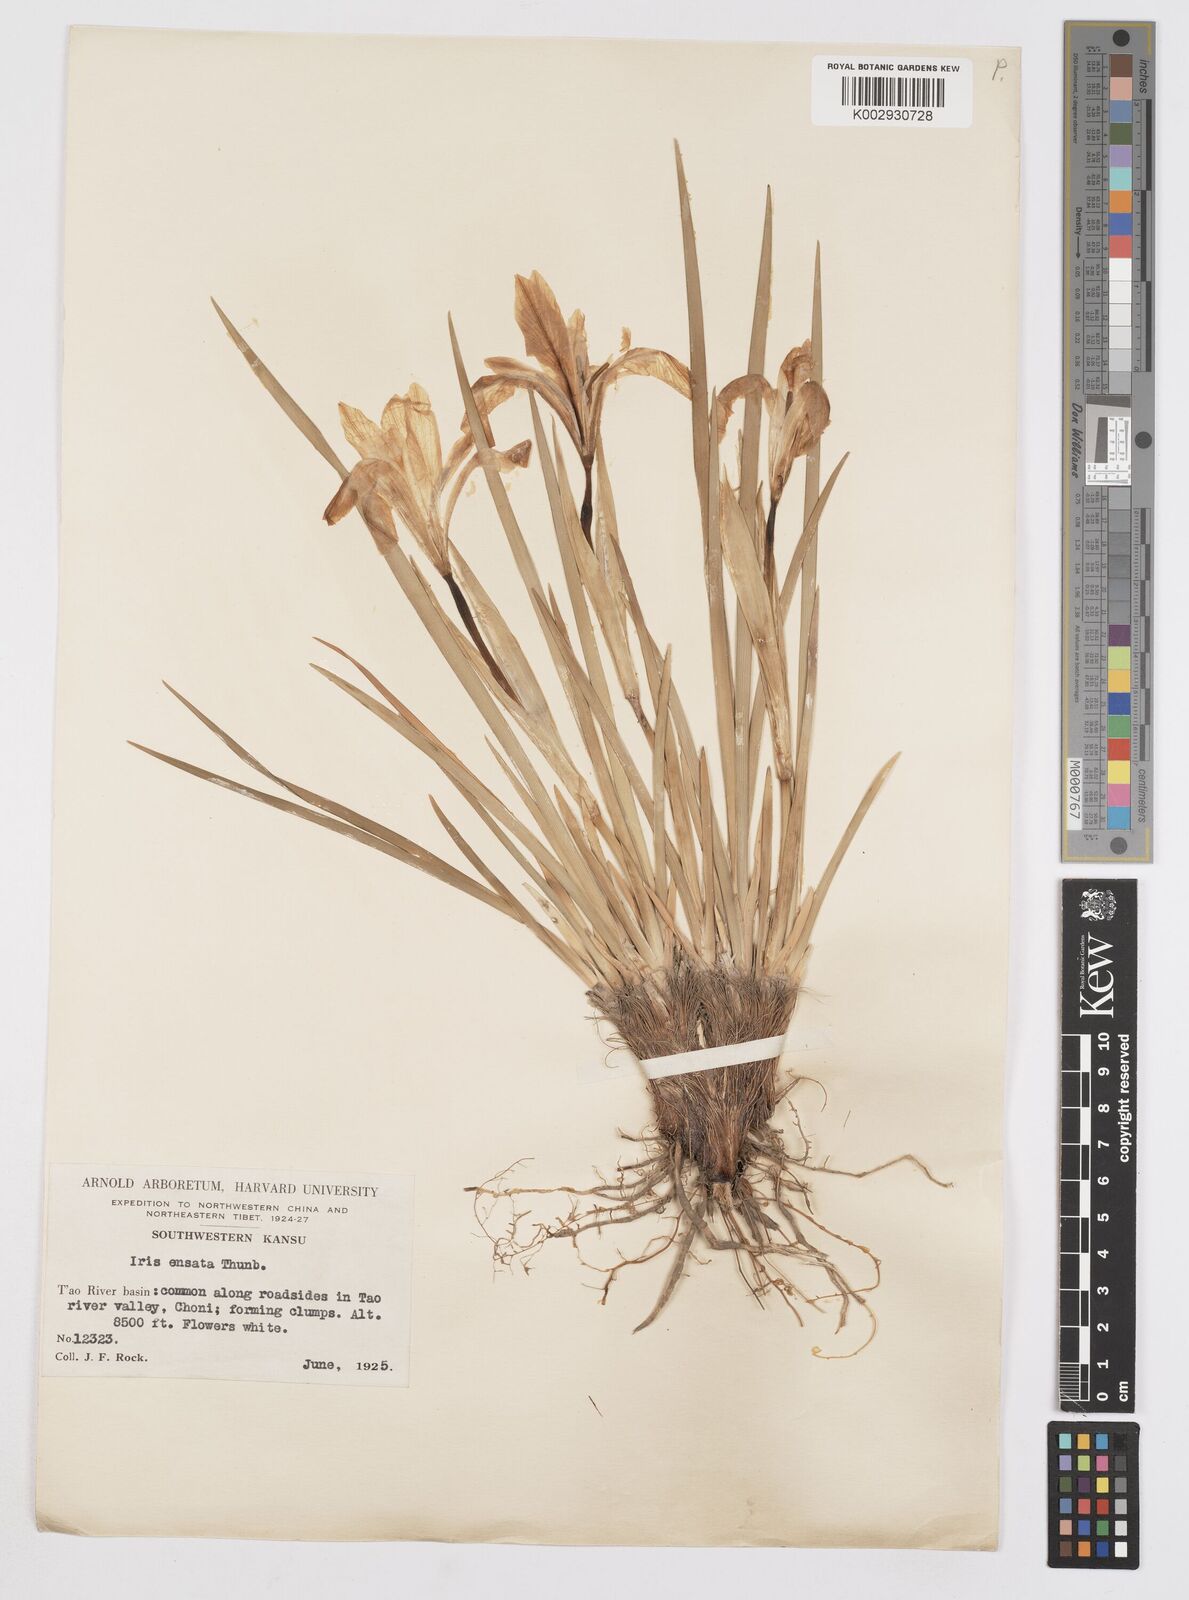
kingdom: Plantae
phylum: Tracheophyta
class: Liliopsida
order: Asparagales
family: Iridaceae
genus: Iris
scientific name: Iris lactea
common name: White-flower chinese iris
